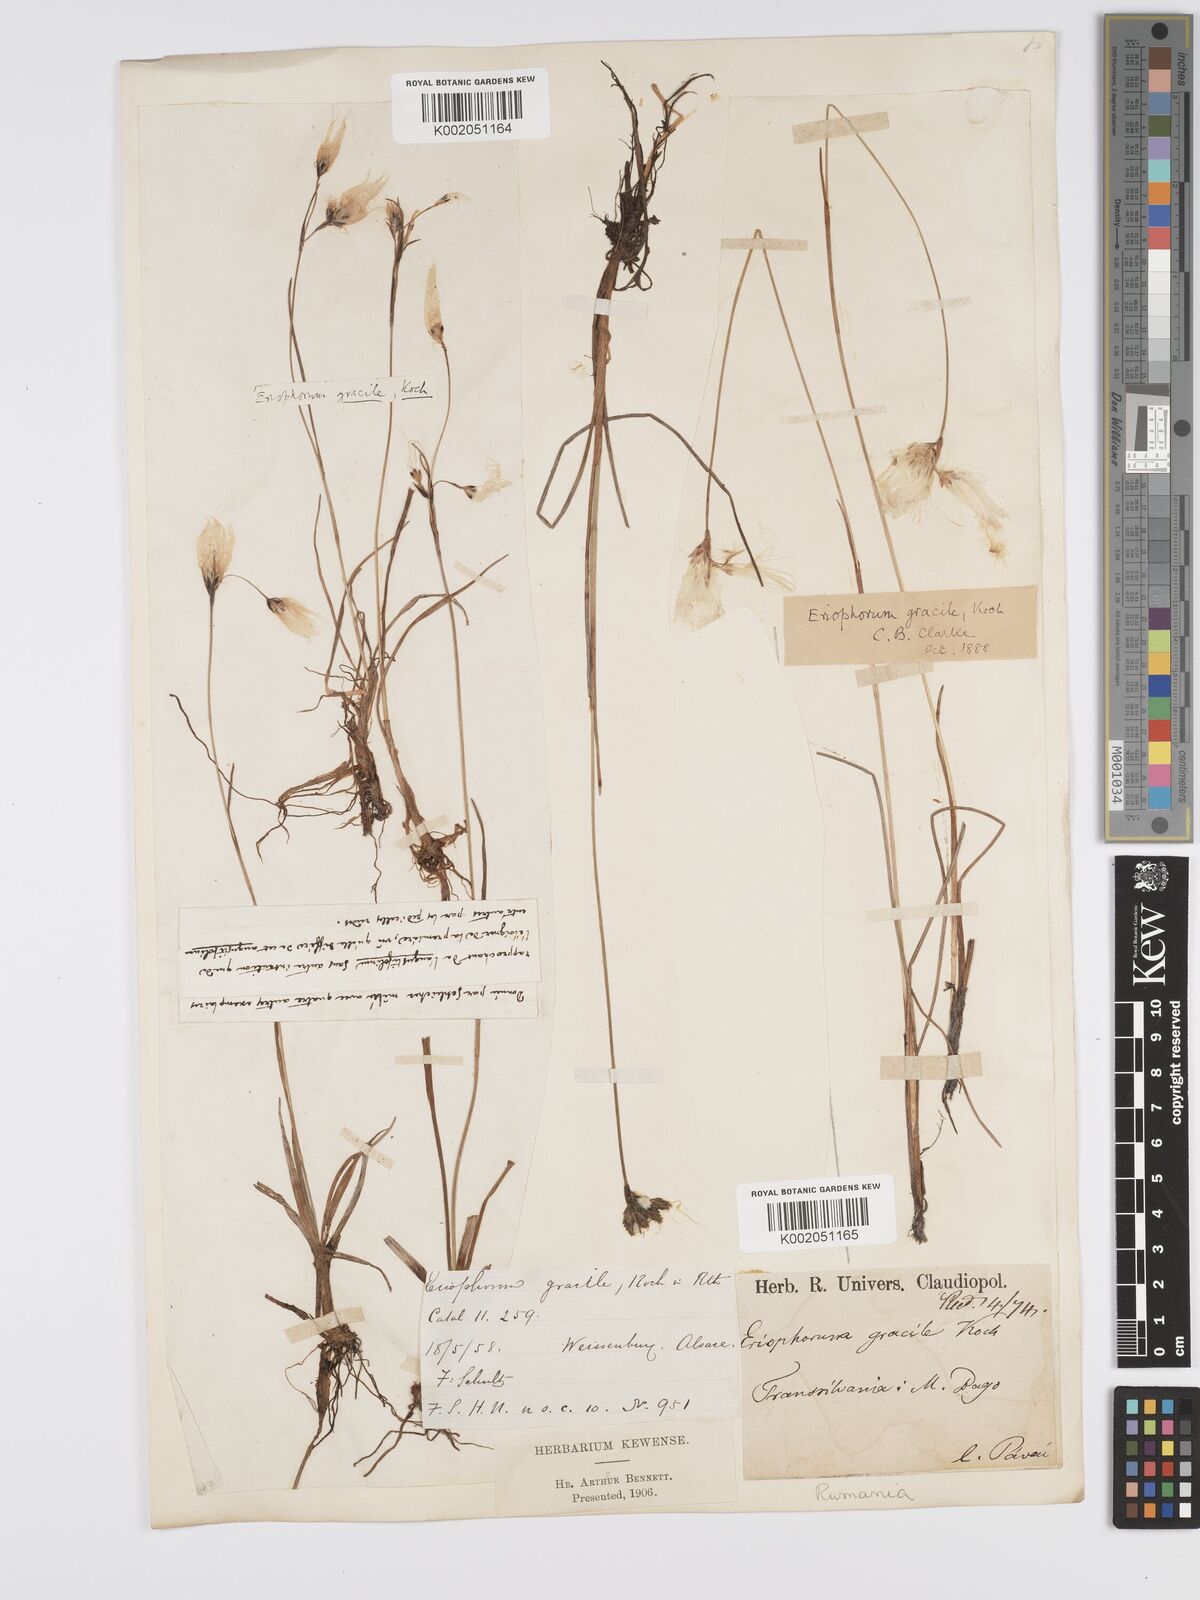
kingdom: Plantae
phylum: Tracheophyta
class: Liliopsida
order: Poales
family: Cyperaceae
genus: Eriophorum
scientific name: Eriophorum gracile
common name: Slender cottongrass
